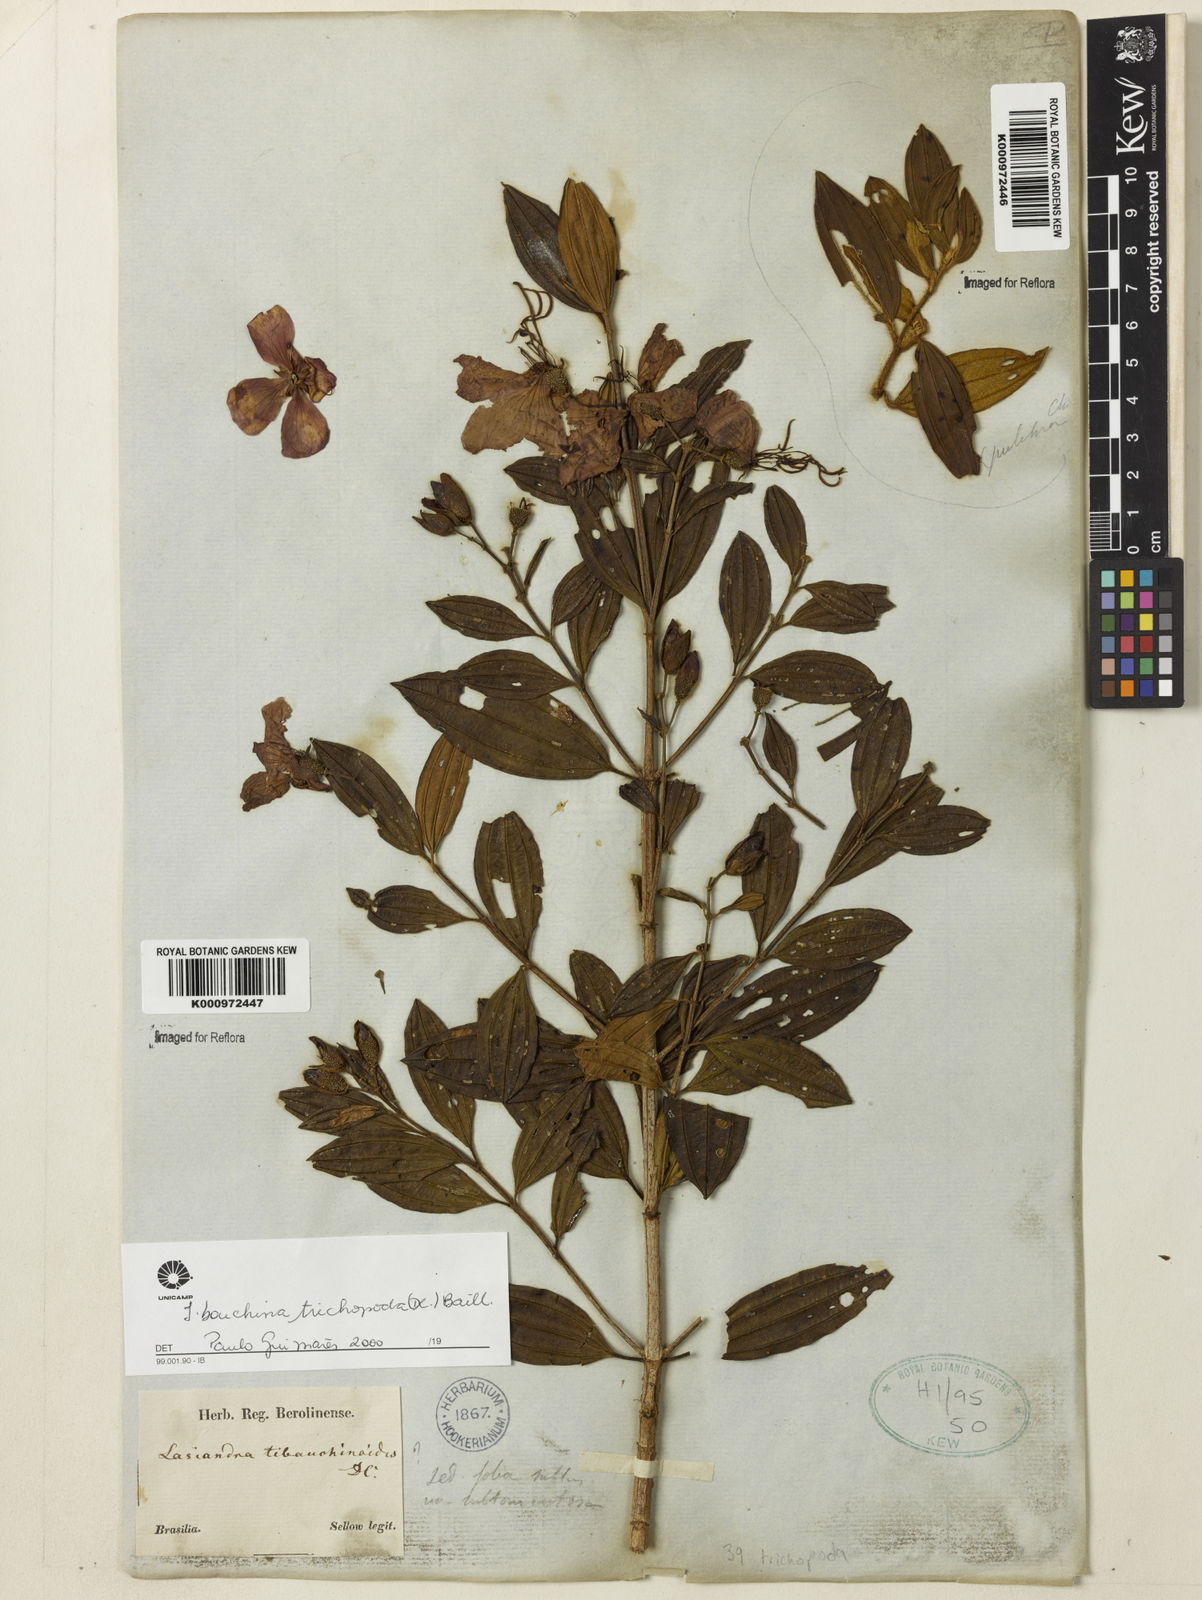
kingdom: Plantae
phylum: Tracheophyta
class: Magnoliopsida
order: Myrtales
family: Melastomataceae
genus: Pleroma
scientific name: Pleroma trichopodum
